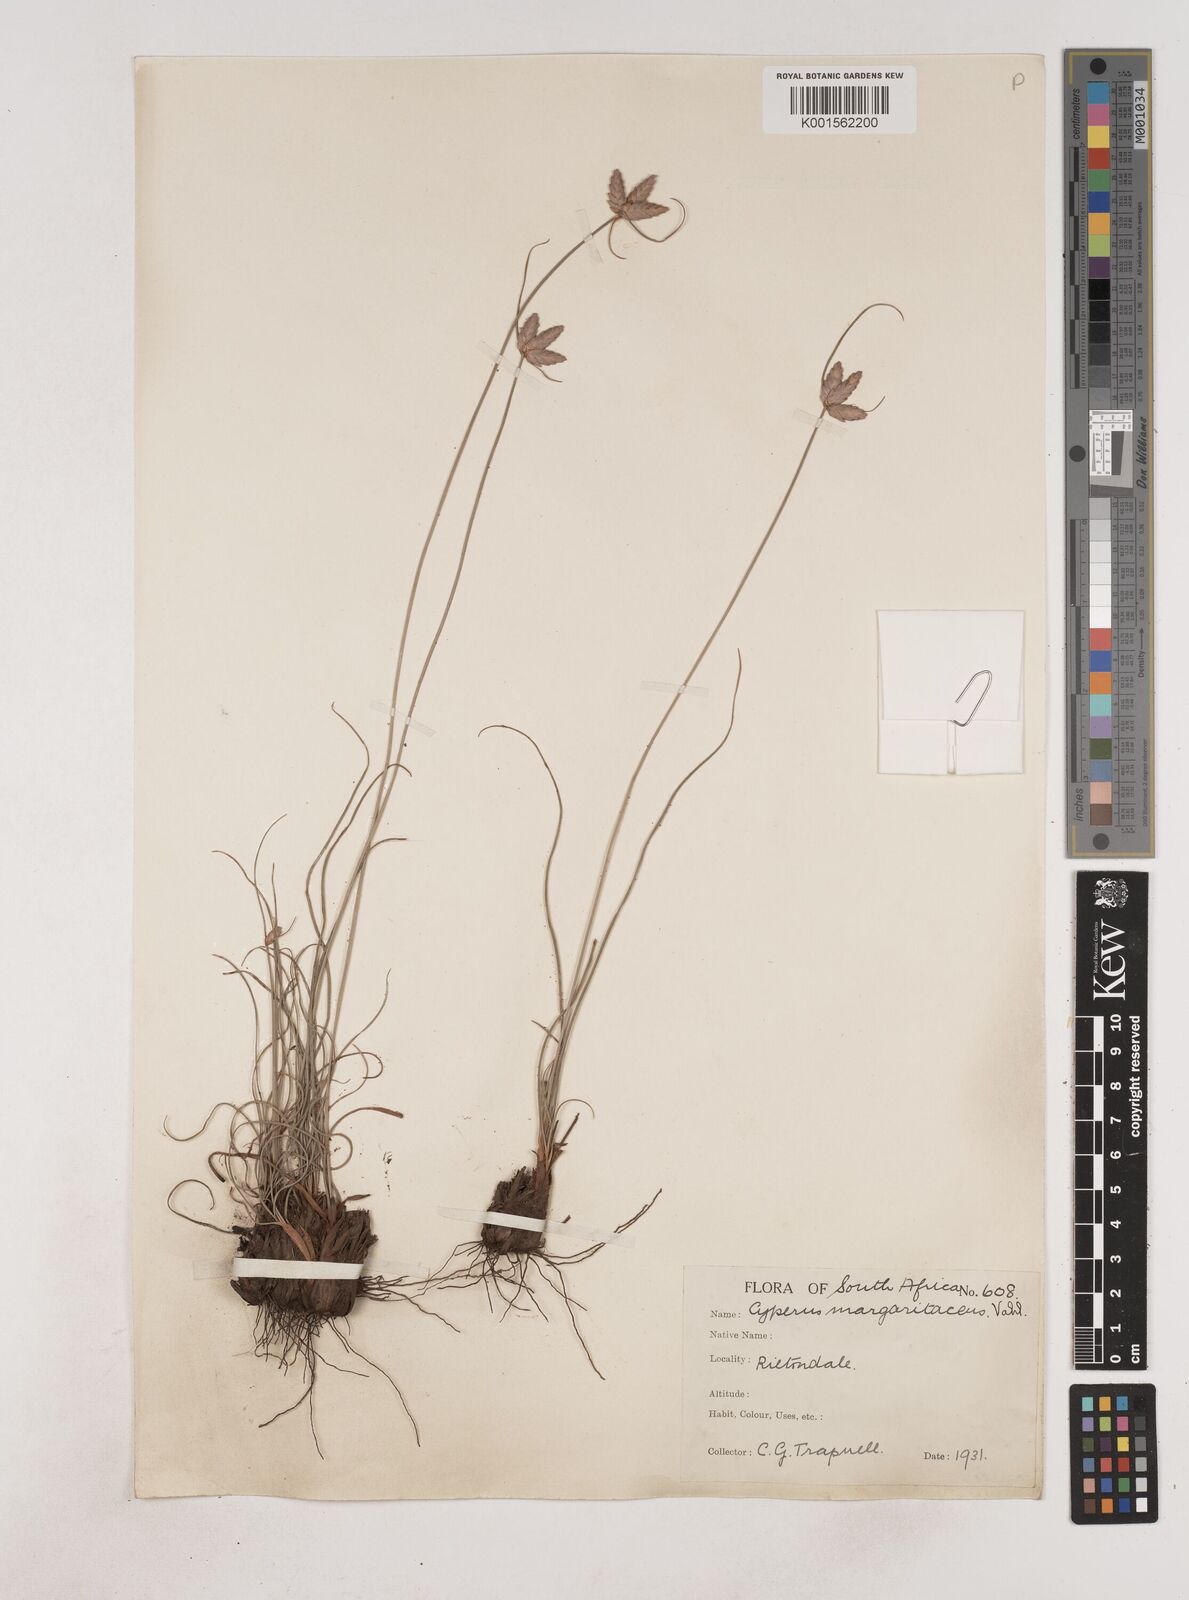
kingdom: Plantae
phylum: Tracheophyta
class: Liliopsida
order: Poales
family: Cyperaceae
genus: Cyperus
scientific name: Cyperus margaritaceus
